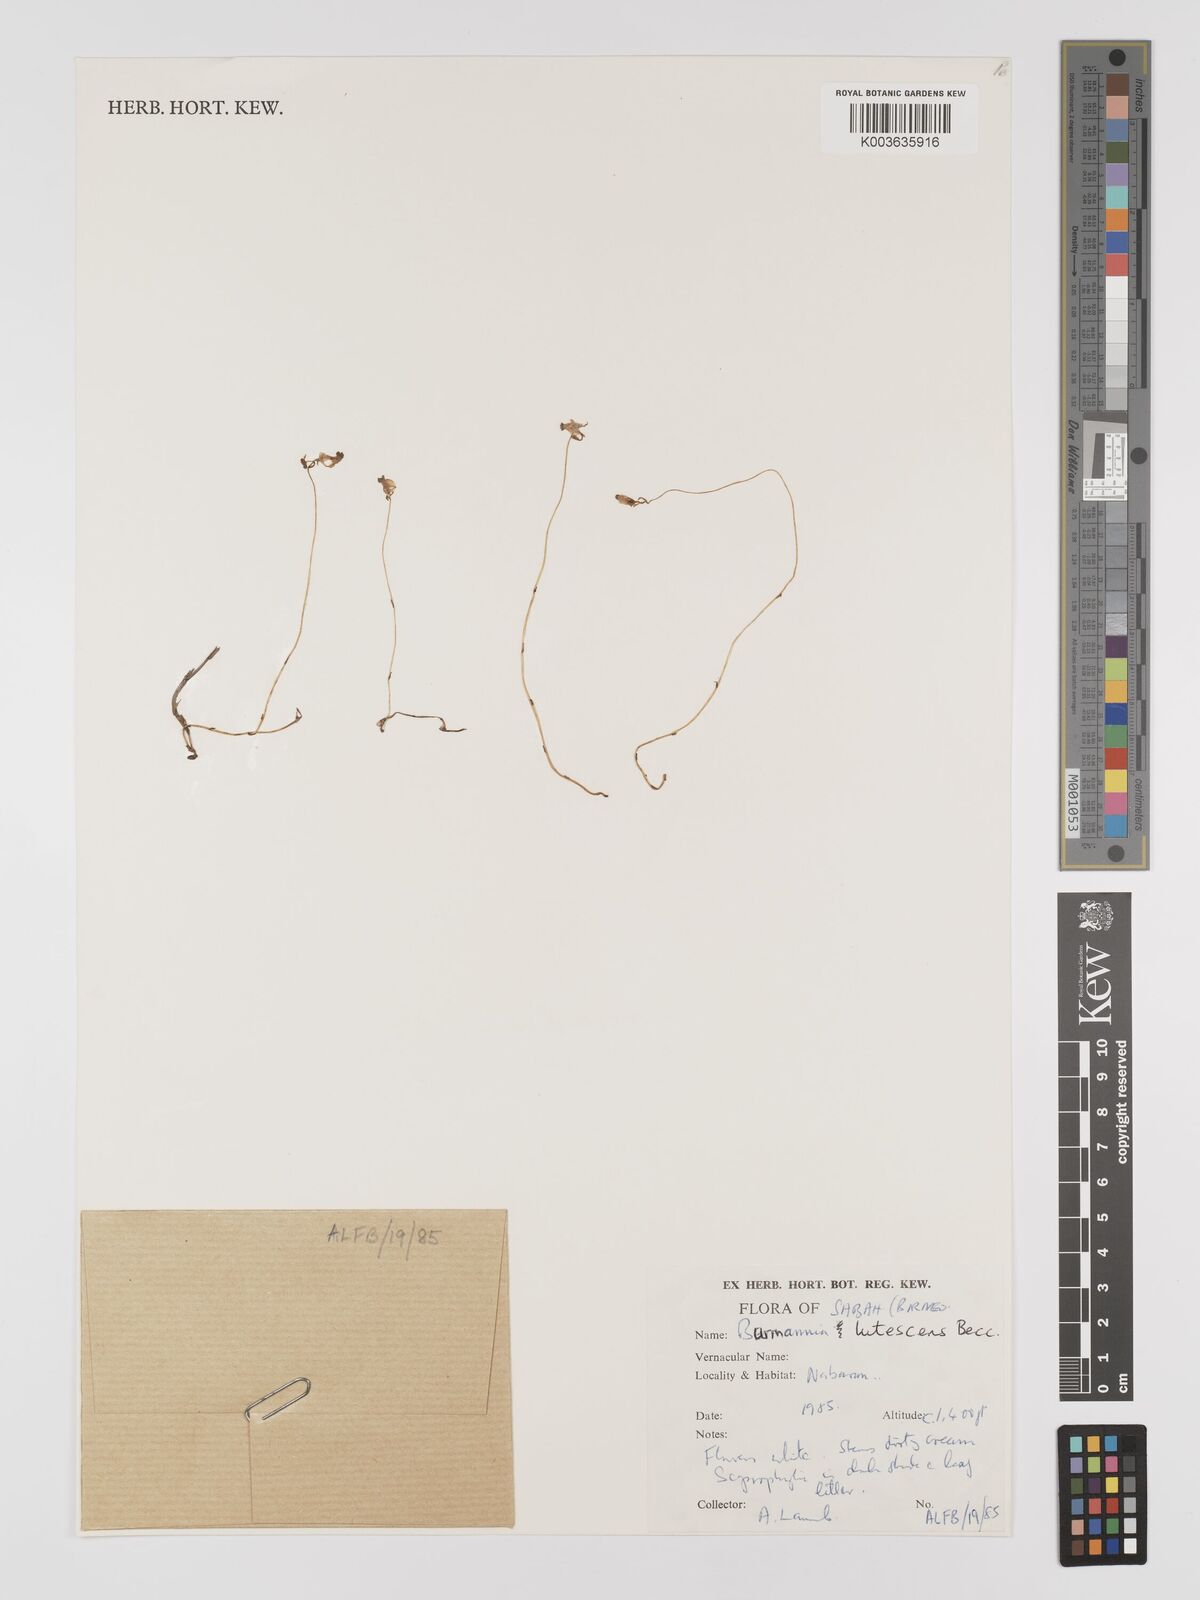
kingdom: Plantae
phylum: Tracheophyta
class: Liliopsida
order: Dioscoreales
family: Burmanniaceae
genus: Burmannia
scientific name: Burmannia lutescens
